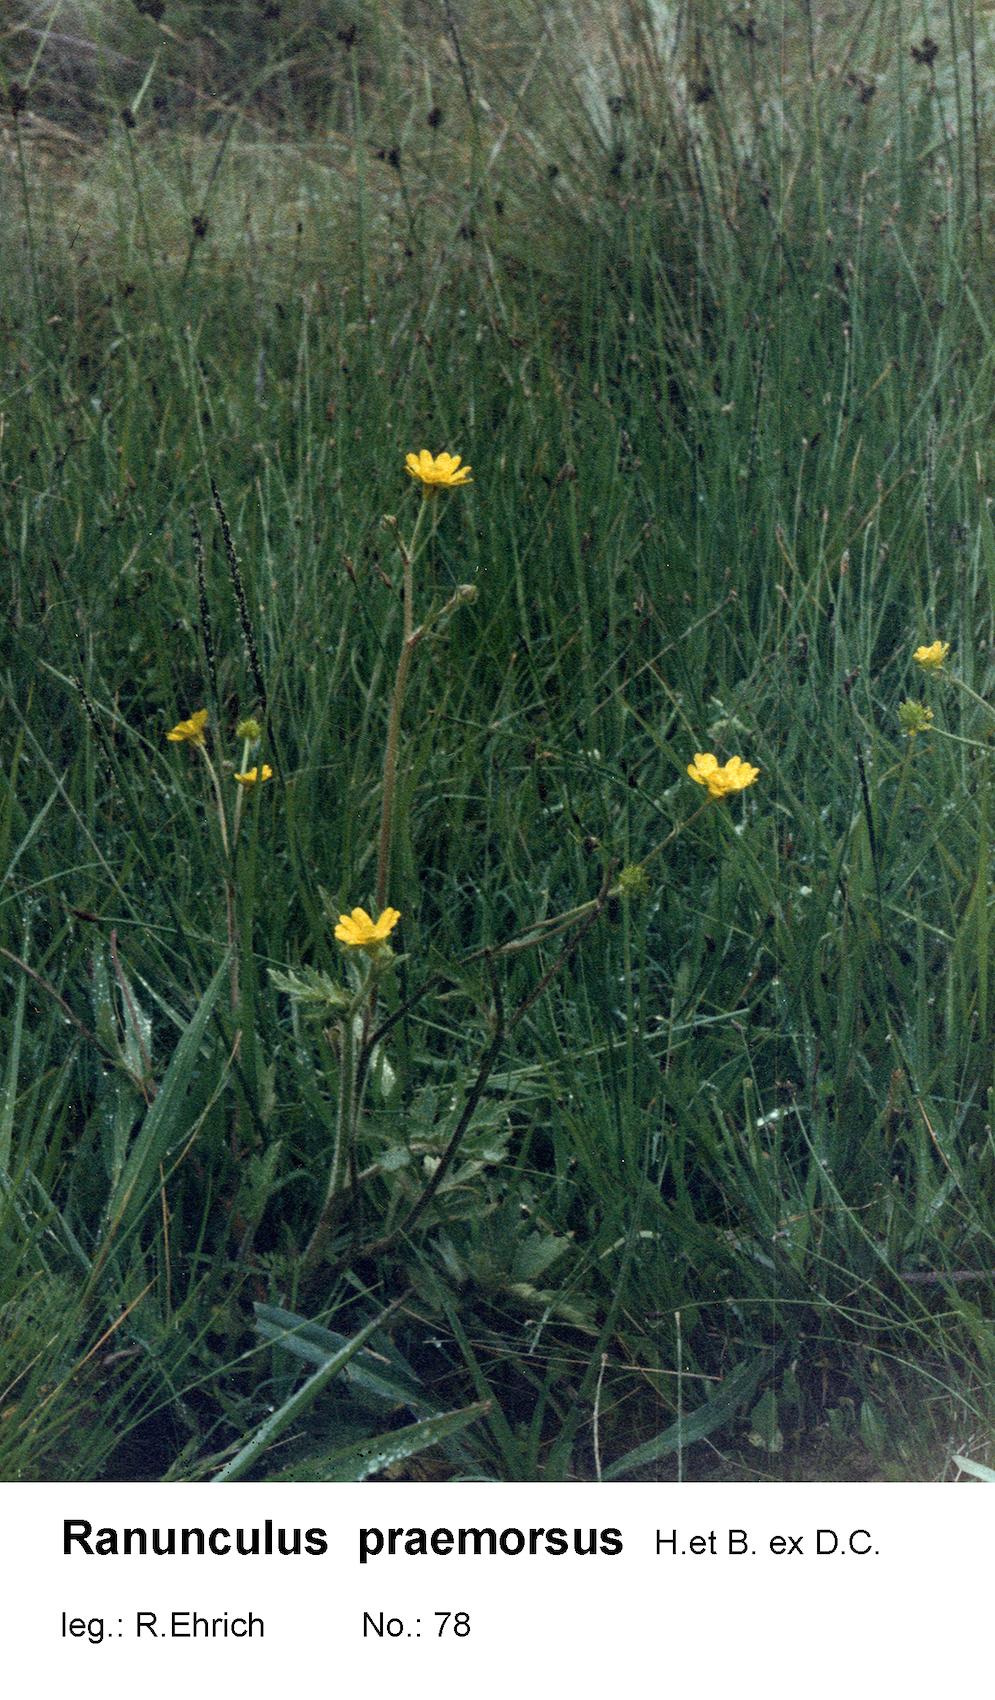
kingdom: Plantae
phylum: Tracheophyta
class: Magnoliopsida
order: Ranunculales
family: Ranunculaceae
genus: Ranunculus
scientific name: Ranunculus praemorsus
